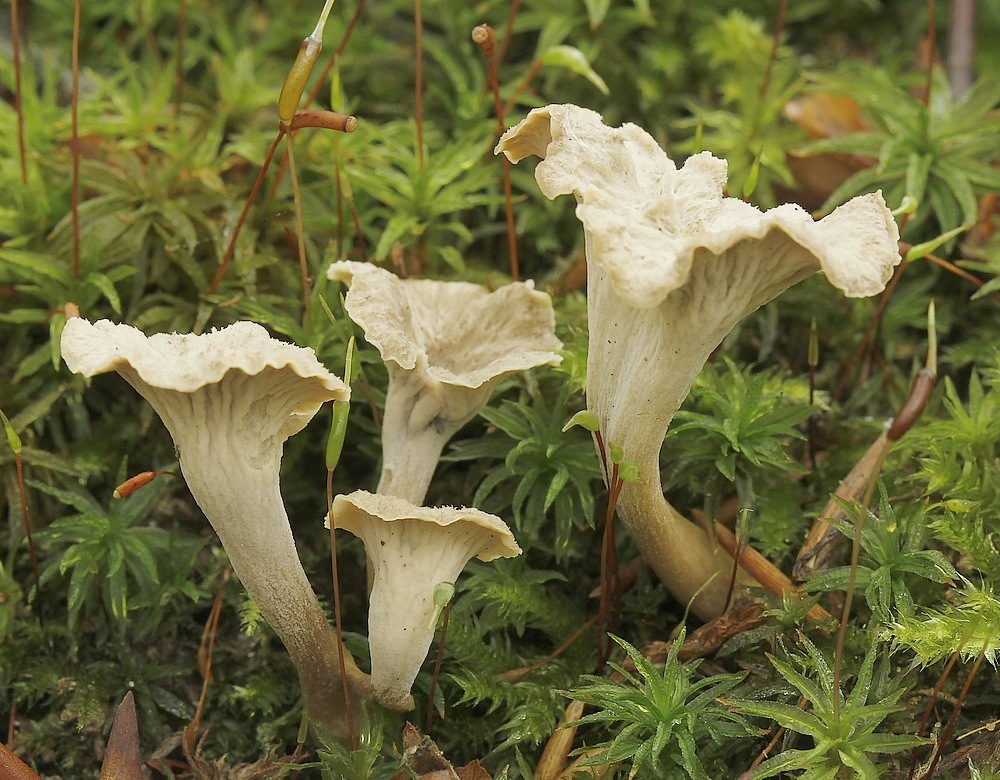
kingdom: Fungi
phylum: Basidiomycota
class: Agaricomycetes
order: Cantharellales
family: Hydnaceae
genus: Craterellus
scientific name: Craterellus undulatus
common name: liden kantarel
